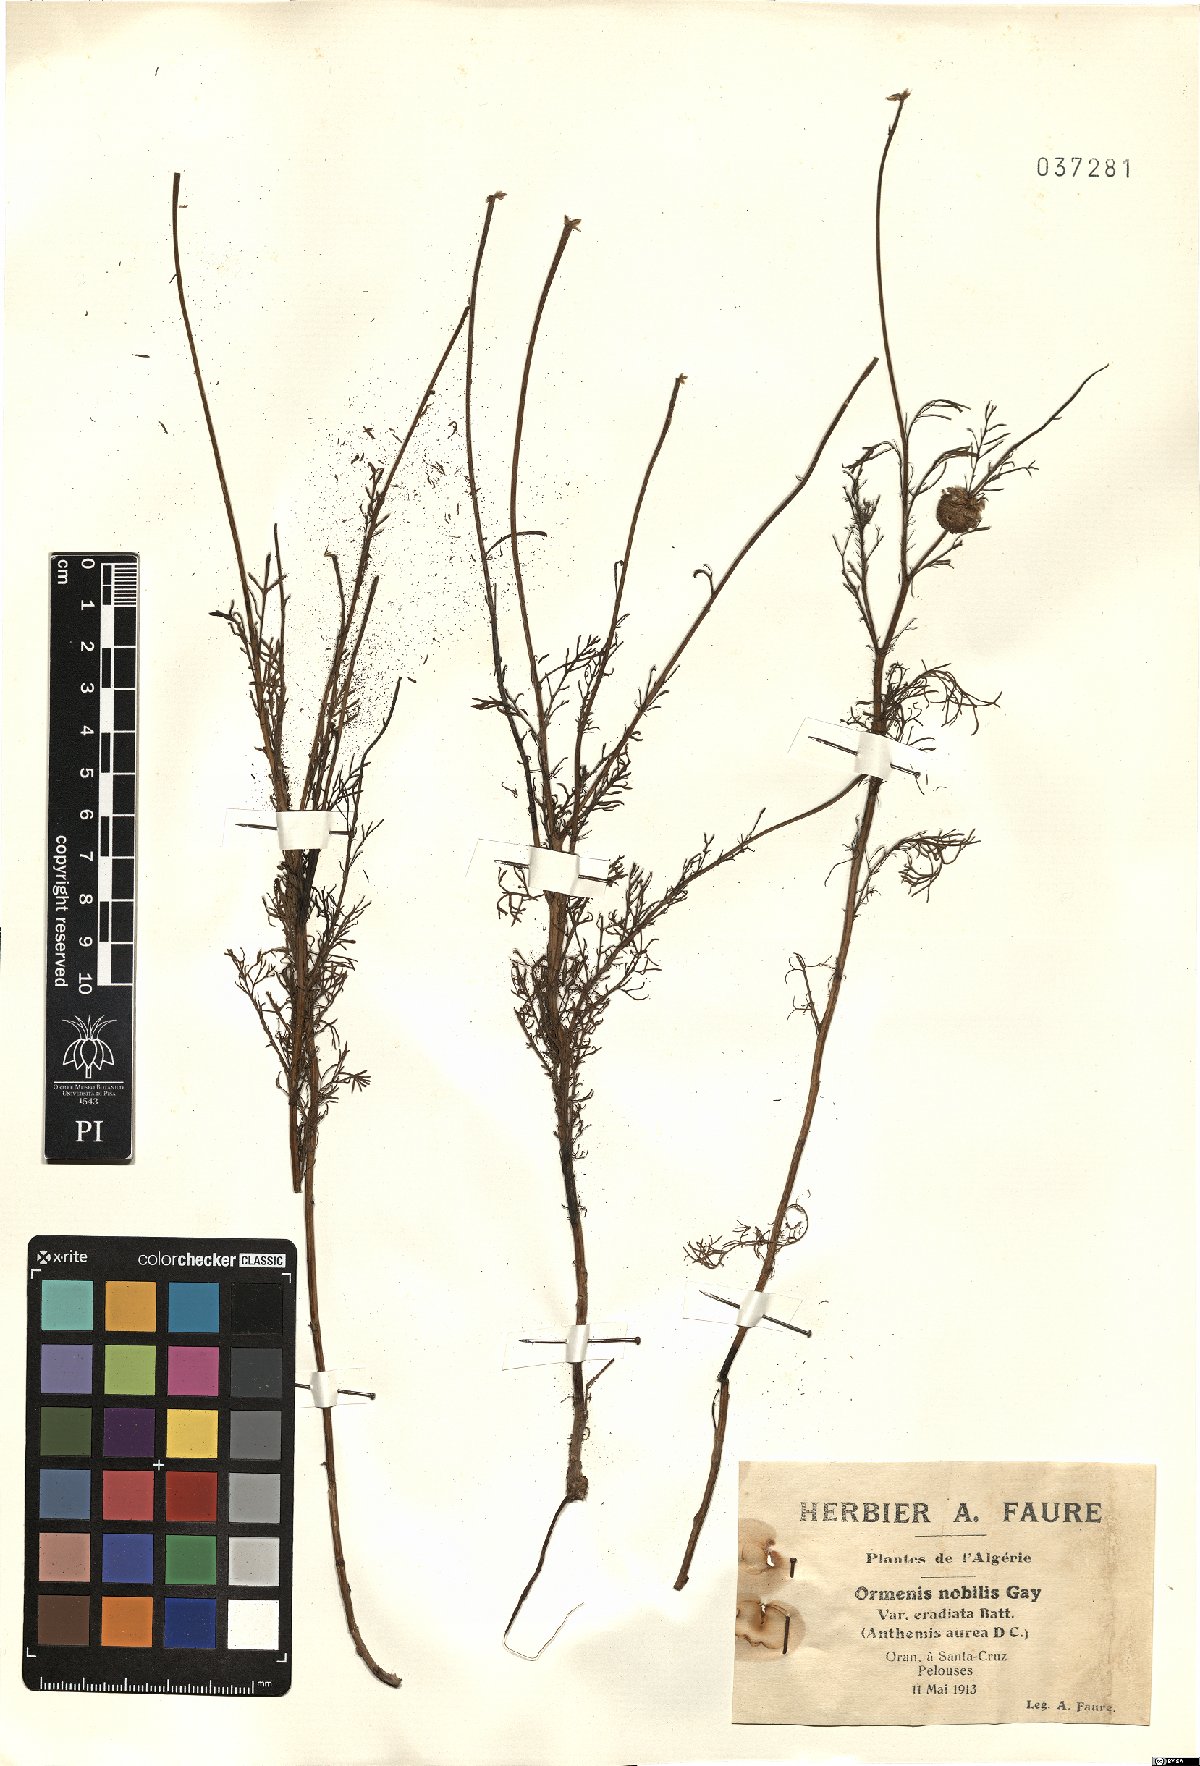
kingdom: Plantae
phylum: Tracheophyta
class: Magnoliopsida
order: Asterales
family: Asteraceae
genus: Chamaemelum
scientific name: Chamaemelum nobile
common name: Roman chamomile
